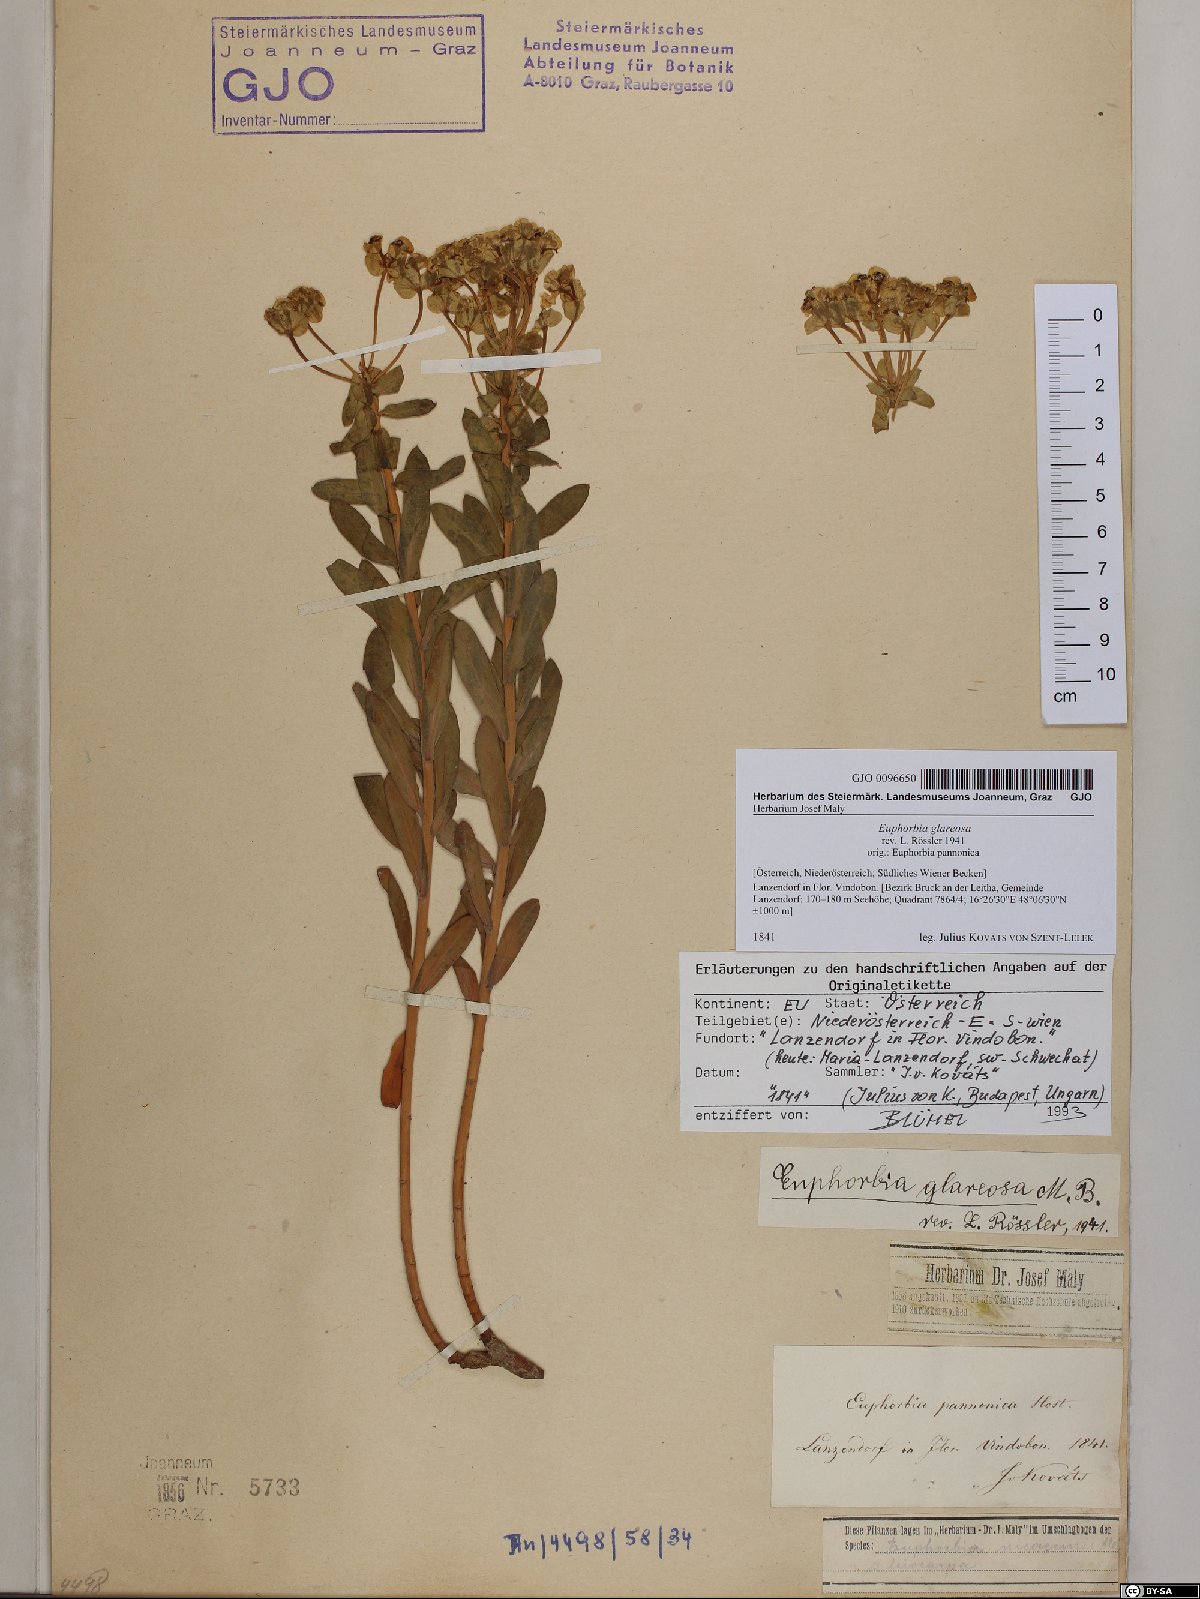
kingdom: Plantae
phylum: Tracheophyta
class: Magnoliopsida
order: Malpighiales
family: Euphorbiaceae
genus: Euphorbia
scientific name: Euphorbia glareosa
